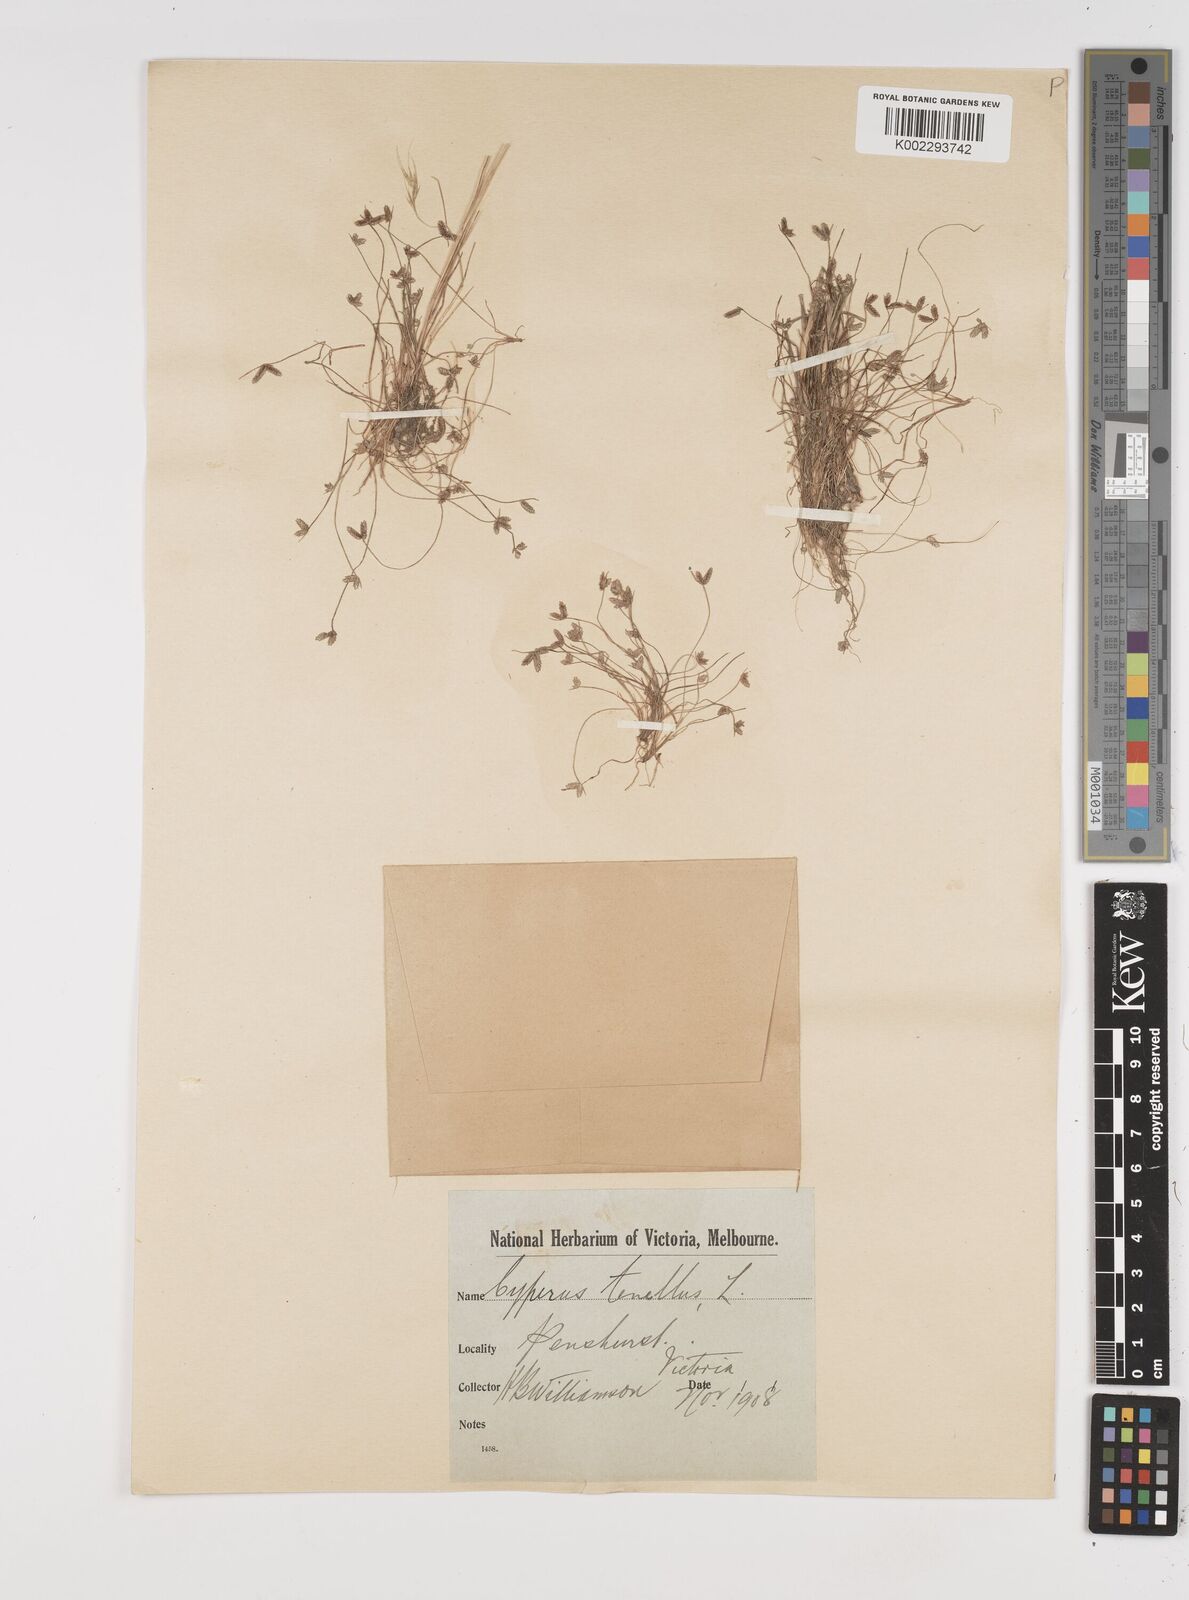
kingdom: Plantae
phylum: Tracheophyta
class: Liliopsida
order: Poales
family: Cyperaceae
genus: Isolepis
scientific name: Isolepis levynsiana
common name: Sedge
